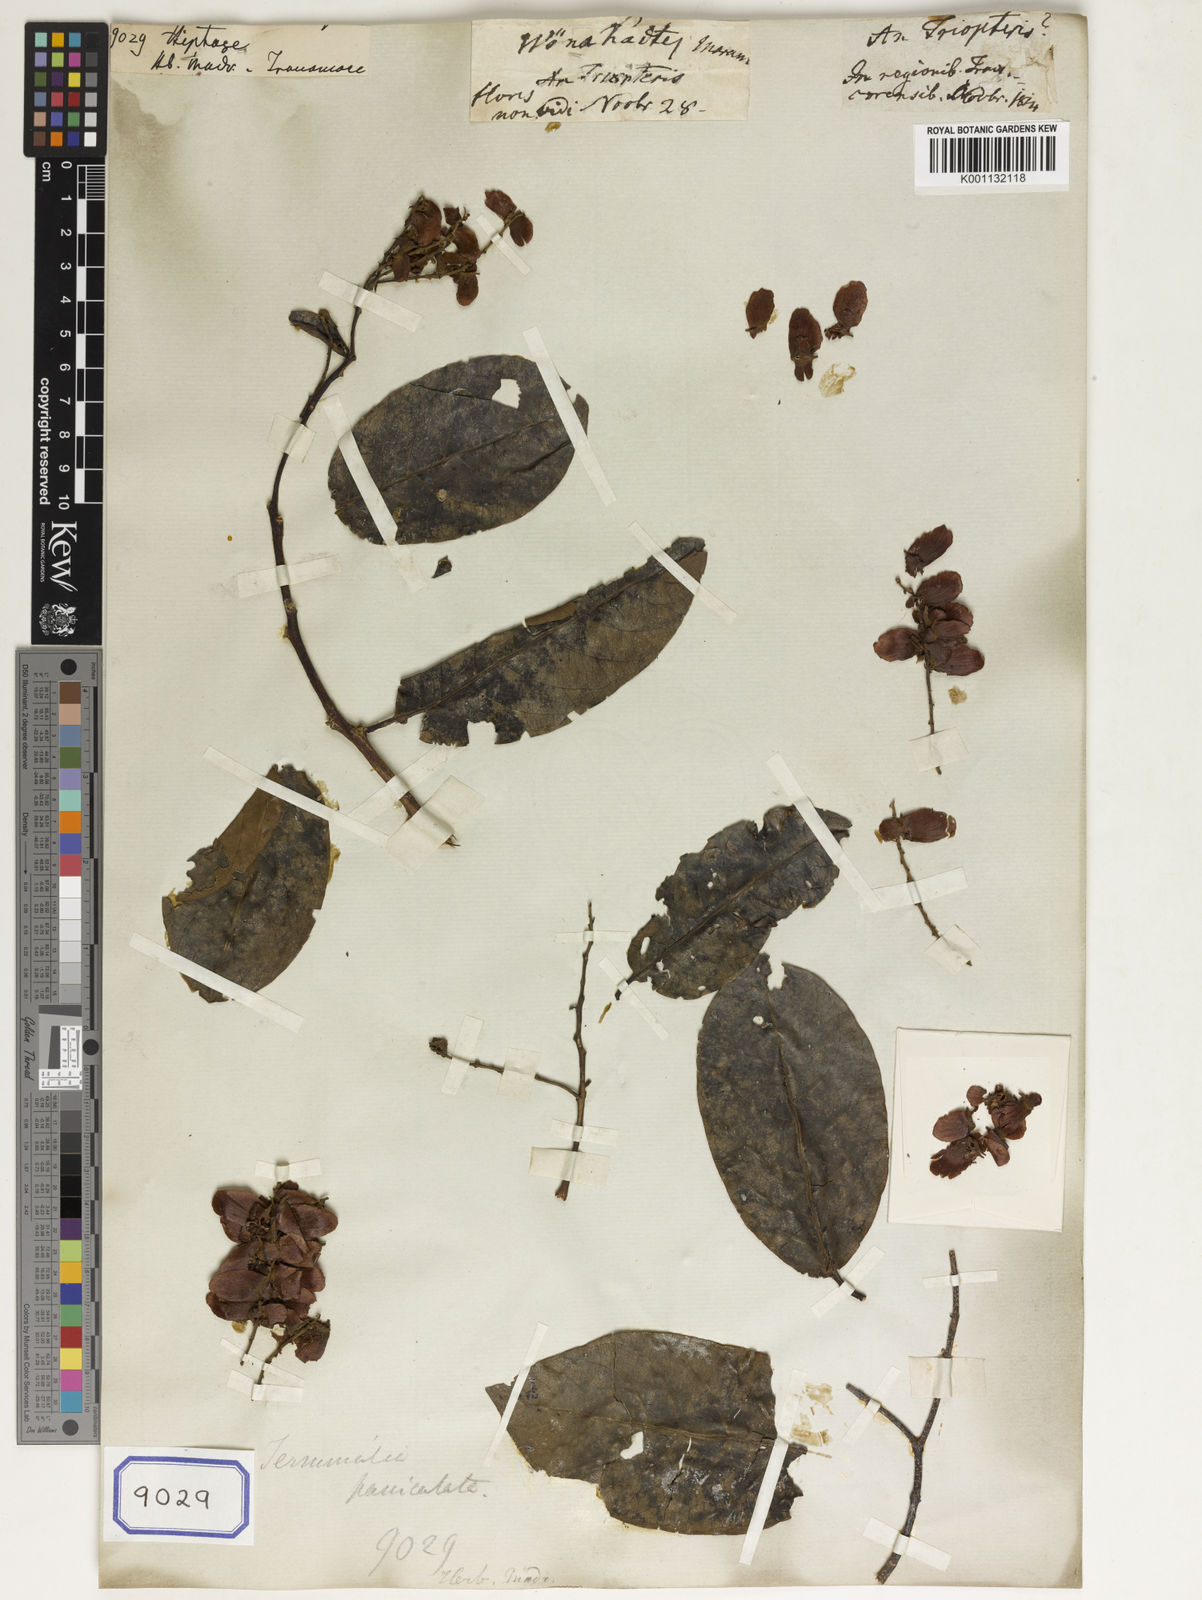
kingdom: Plantae
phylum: Tracheophyta
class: Magnoliopsida
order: Malpighiales
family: Malpighiaceae
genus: Hiptage
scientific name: Hiptage
